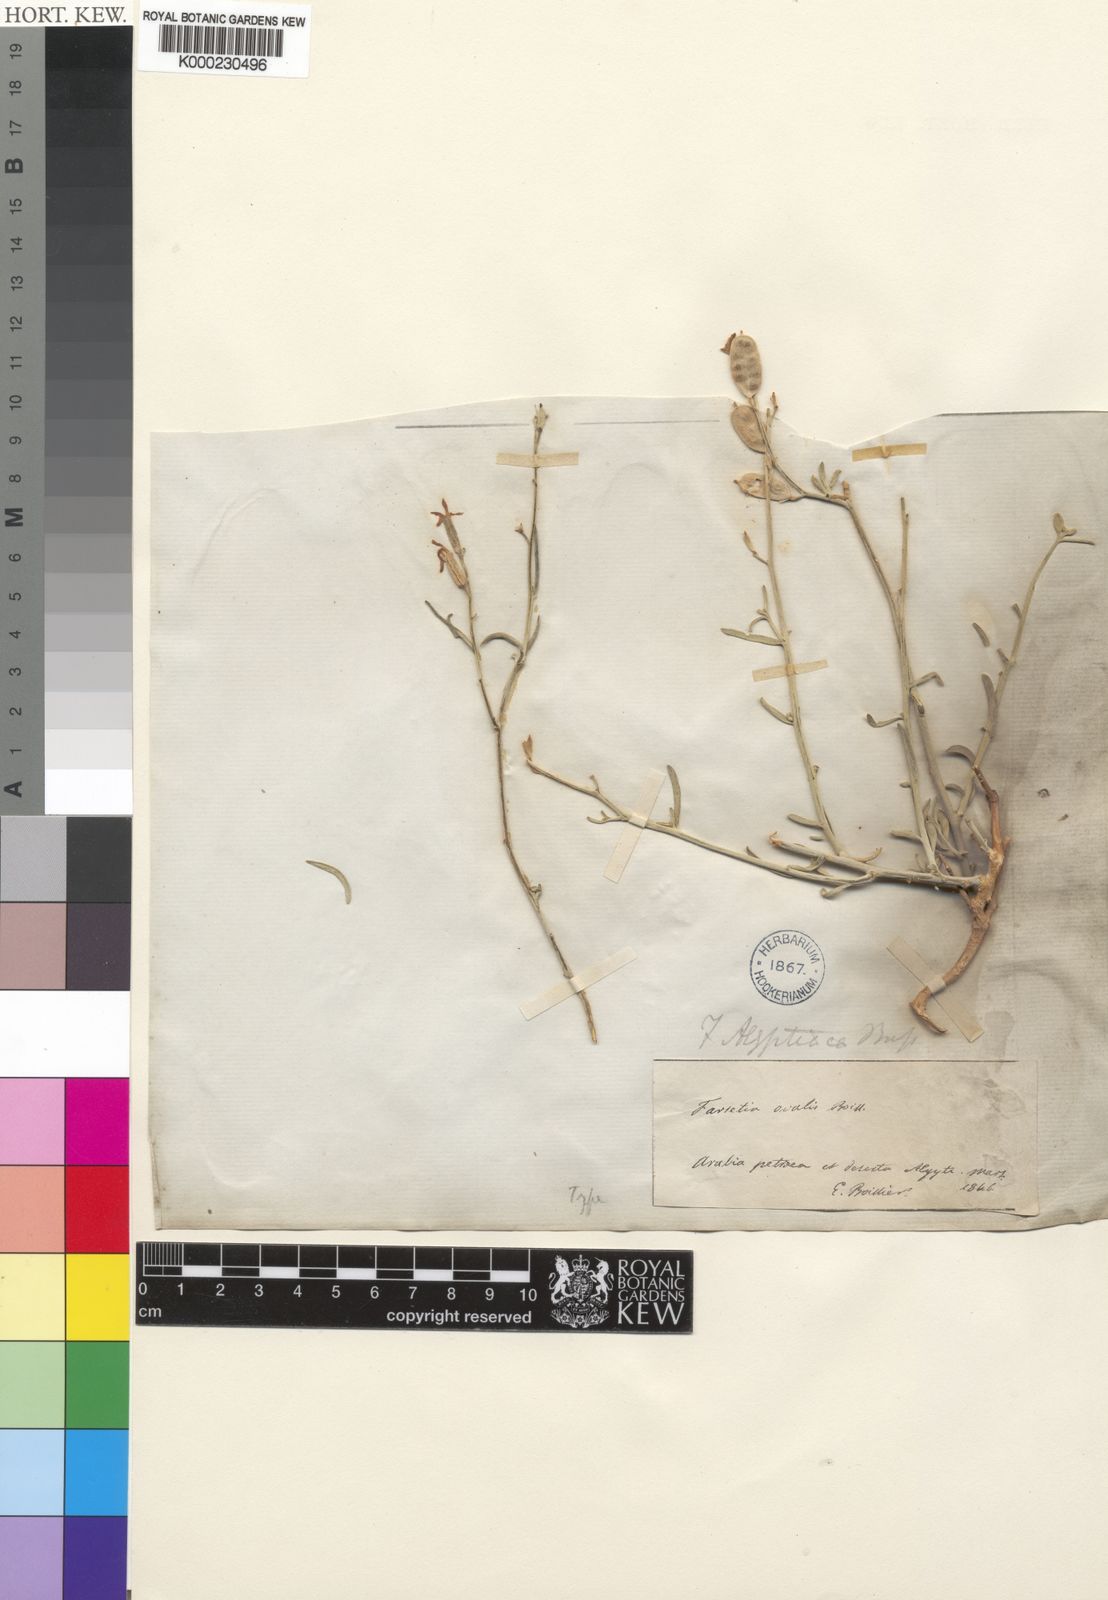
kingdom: Plantae
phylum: Tracheophyta
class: Magnoliopsida
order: Brassicales
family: Brassicaceae
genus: Farsetia
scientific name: Farsetia aegyptia
